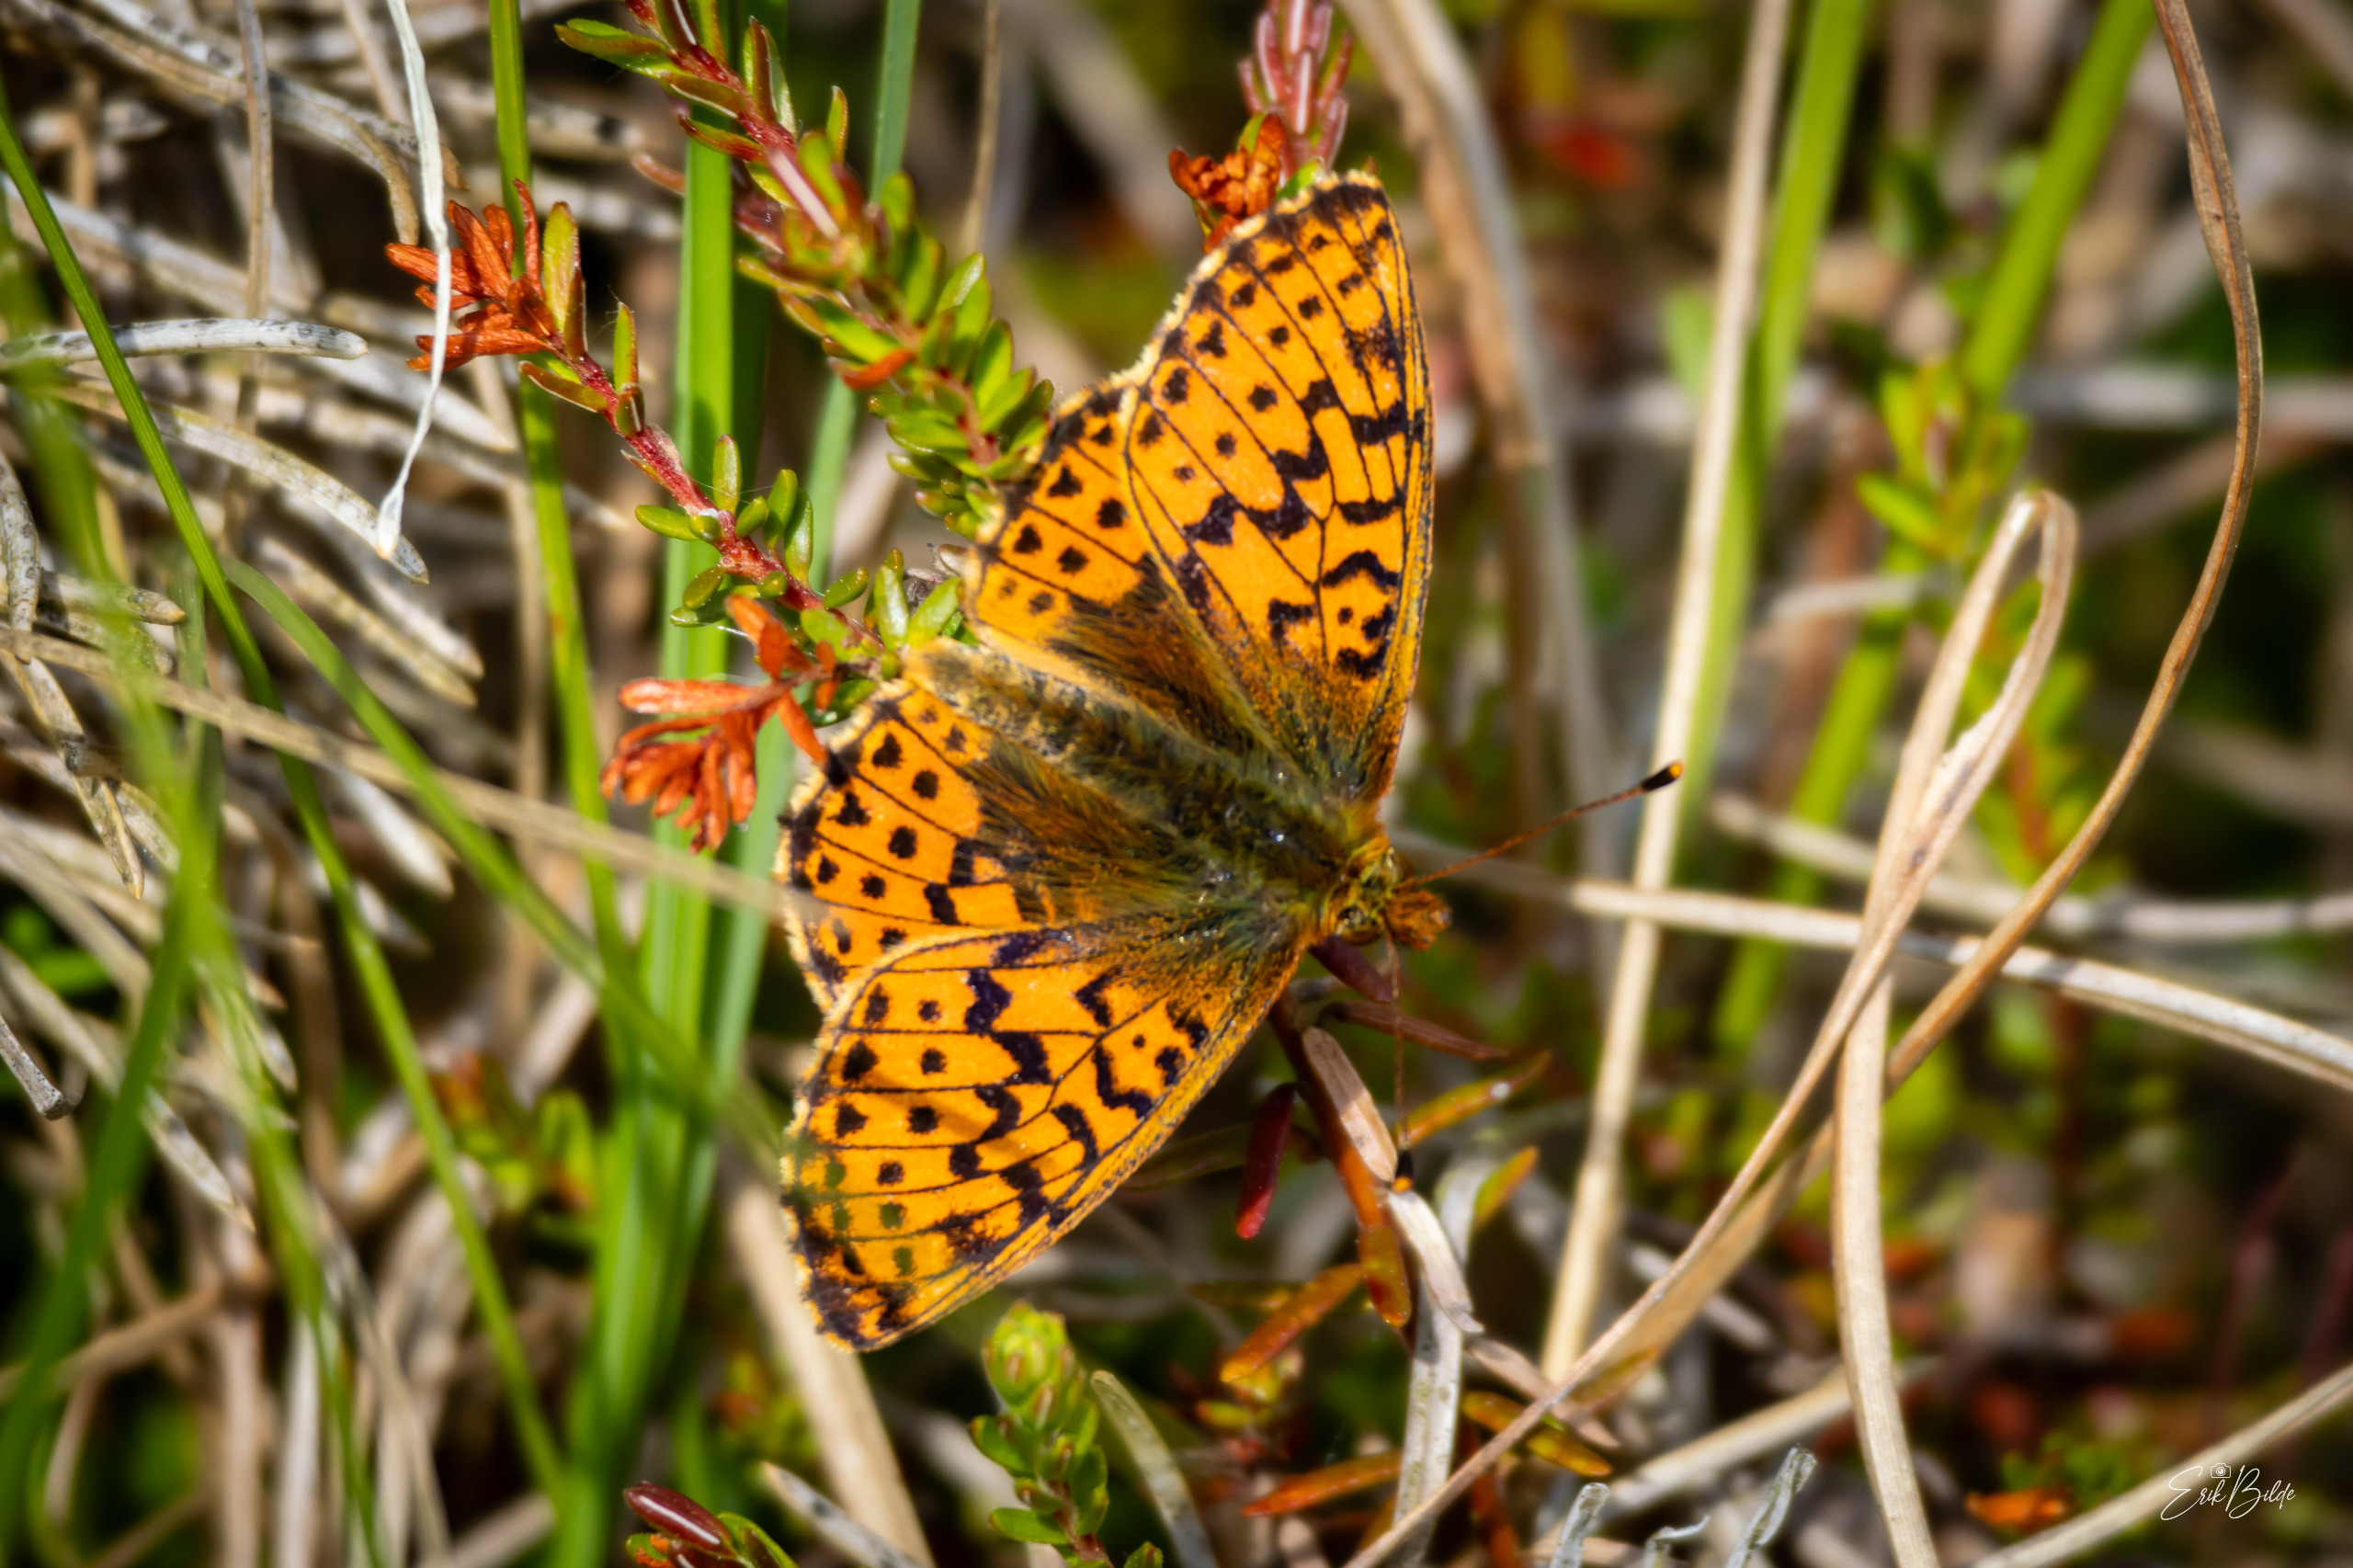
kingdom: Animalia
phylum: Arthropoda
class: Insecta
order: Lepidoptera
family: Nymphalidae
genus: Boloria
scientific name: Boloria aquilonaris
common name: Moseperlemorsommerfugl
